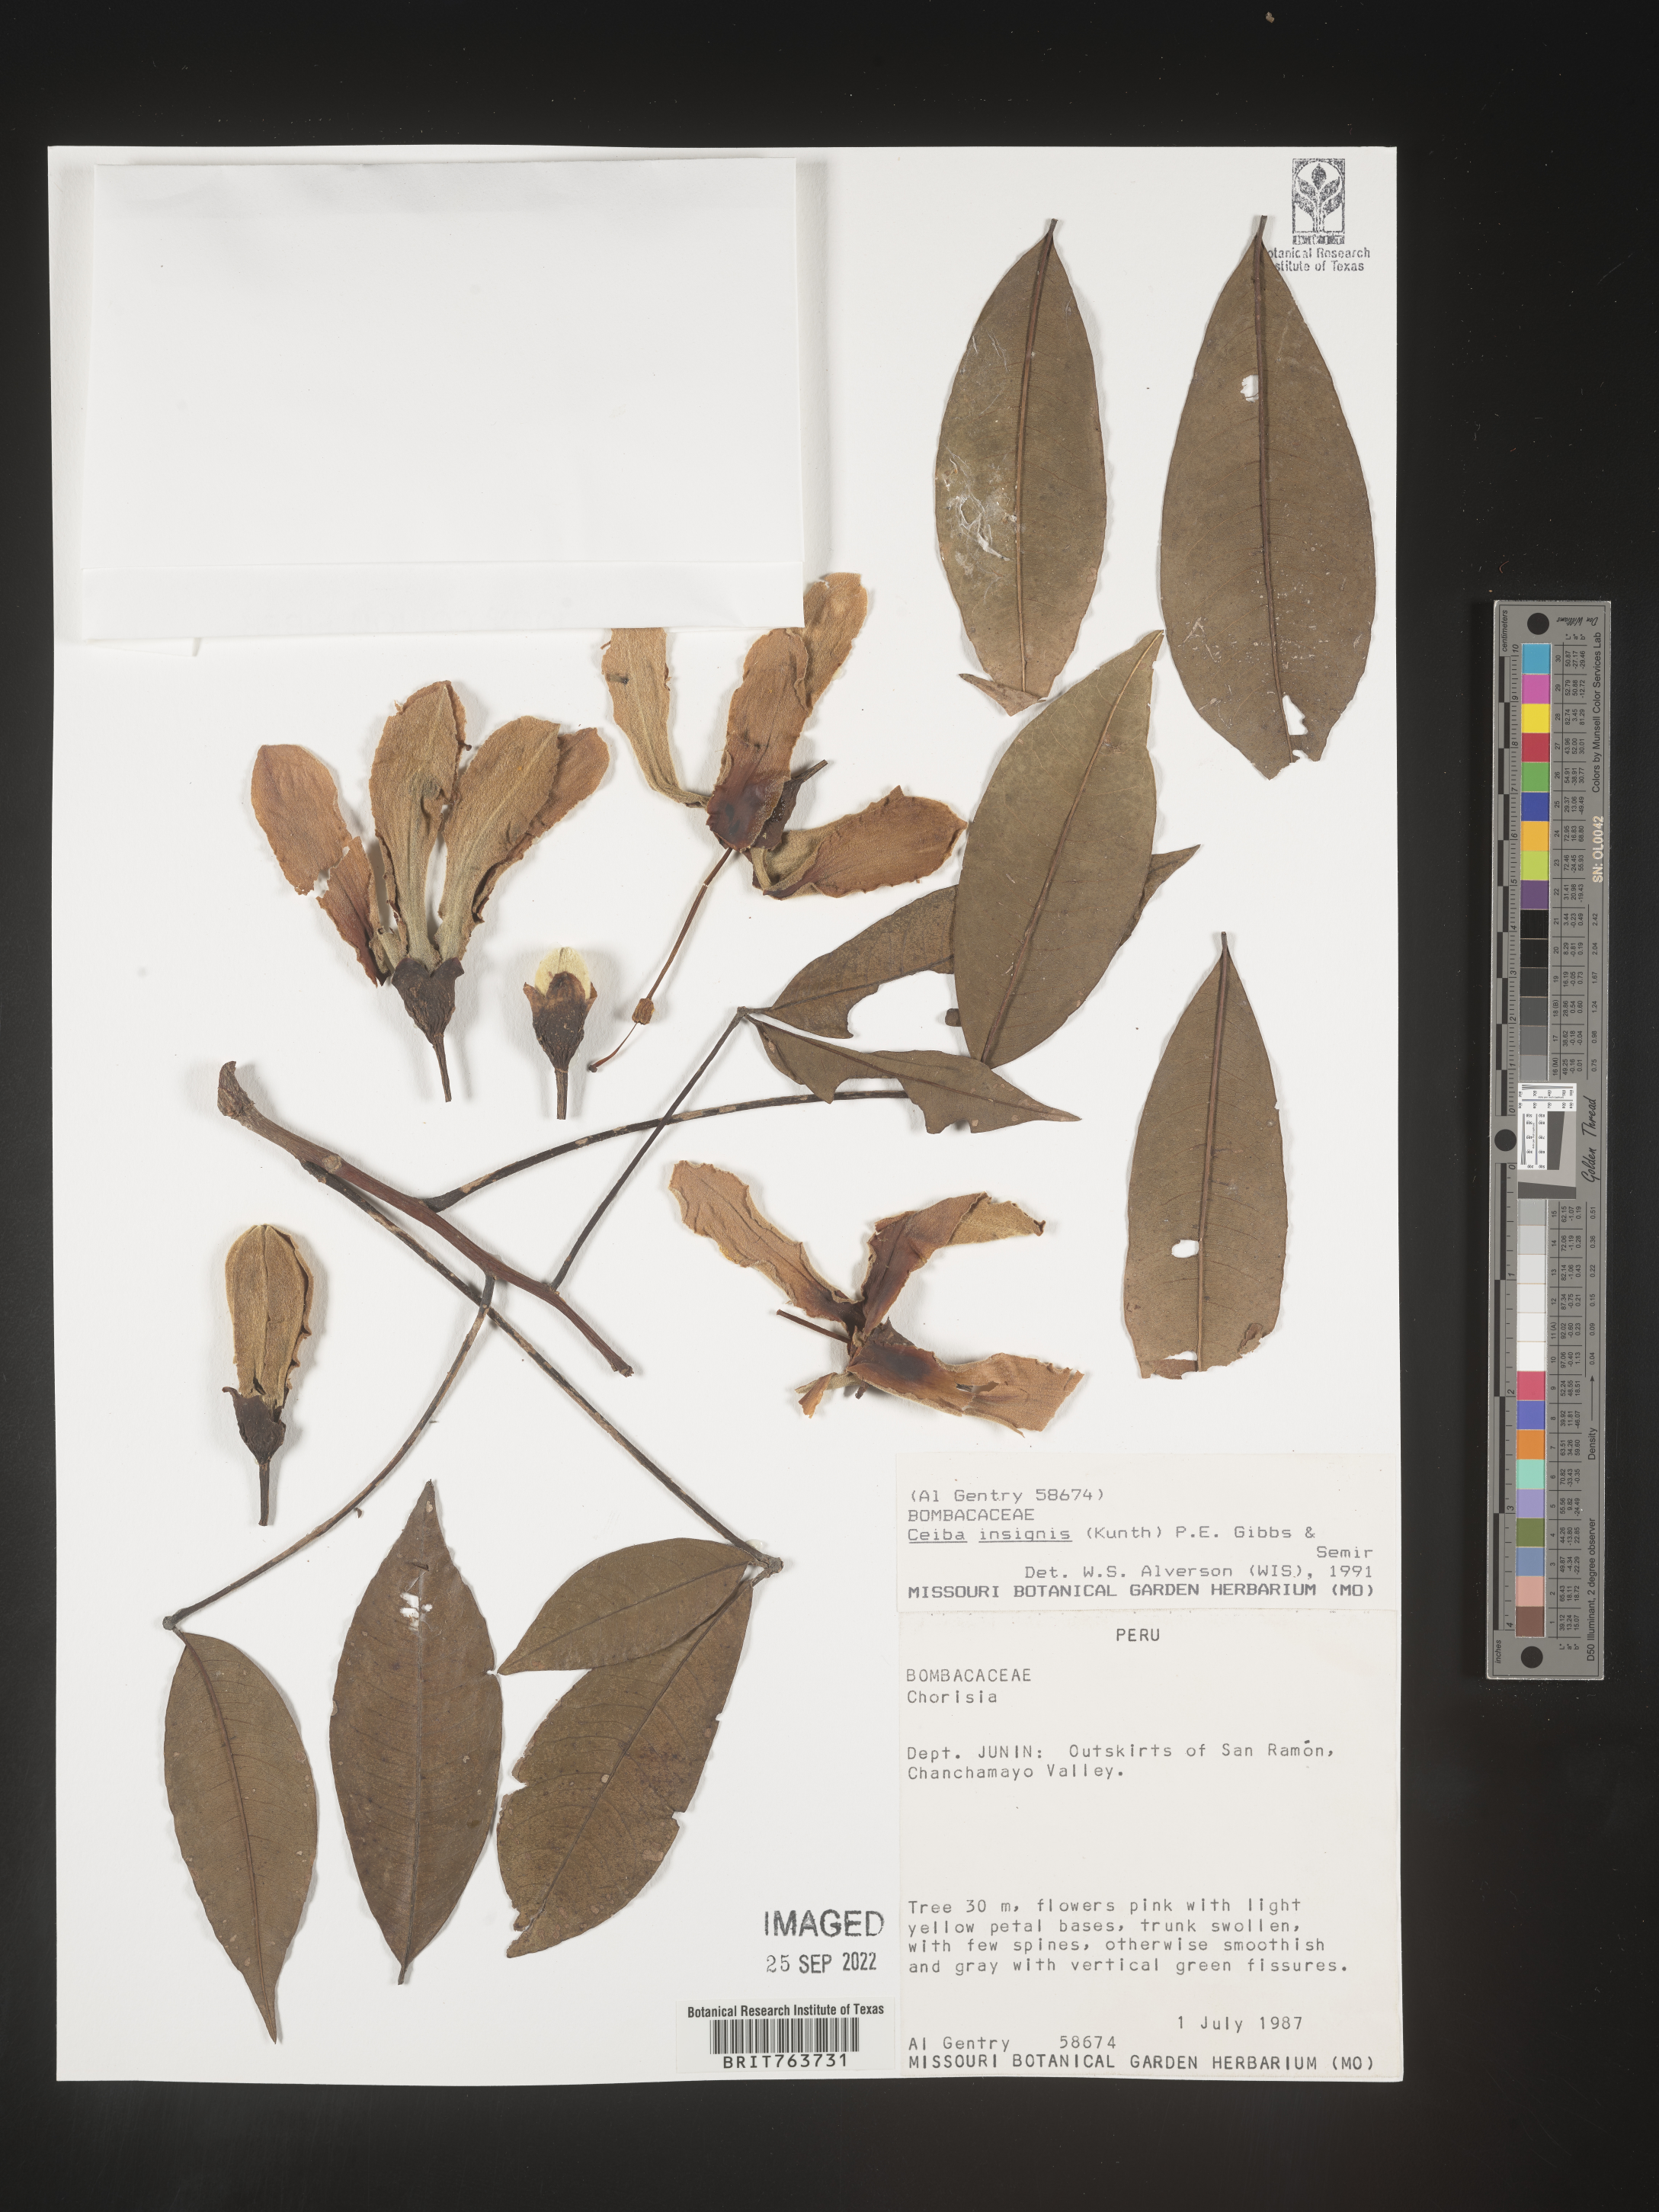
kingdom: Plantae
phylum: Tracheophyta
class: Magnoliopsida
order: Malvales
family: Malvaceae
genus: Ceiba
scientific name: Ceiba
